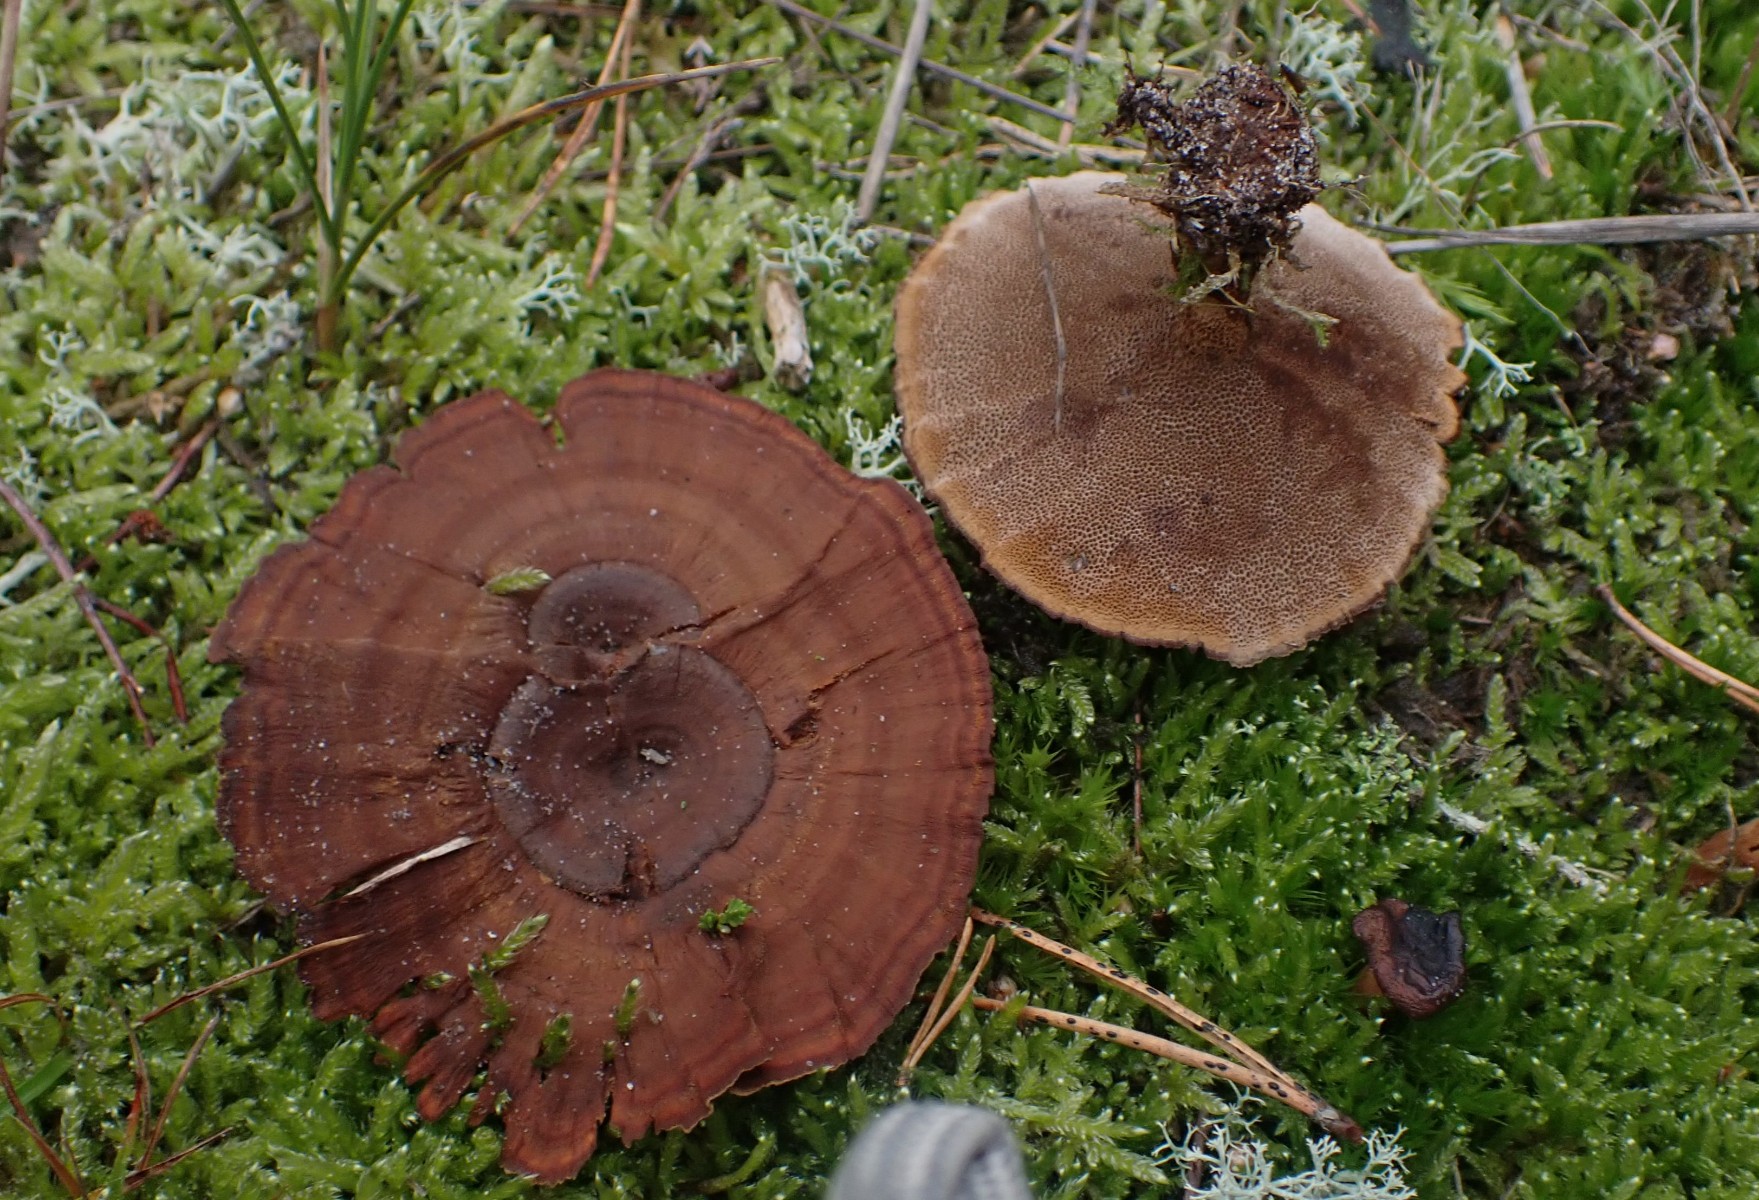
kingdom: Fungi
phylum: Basidiomycota
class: Agaricomycetes
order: Hymenochaetales
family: Hymenochaetaceae
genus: Coltricia
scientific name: Coltricia perennis
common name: almindelig sandporesvamp
